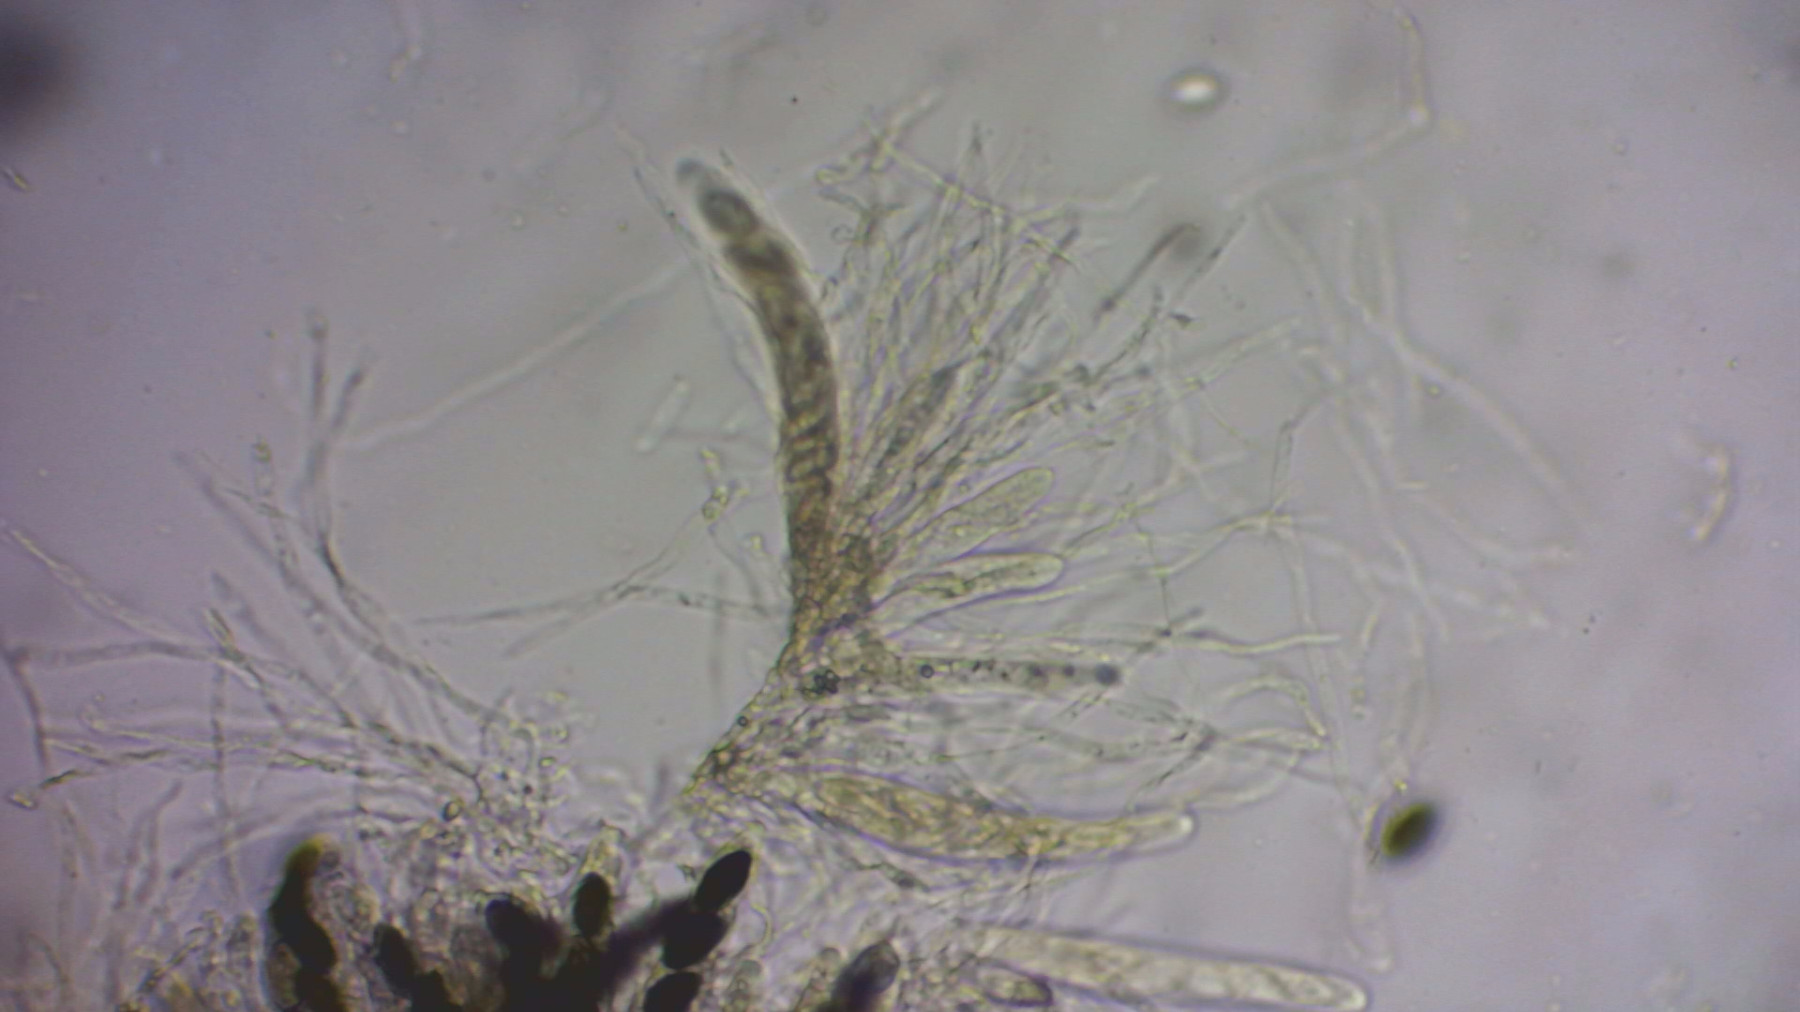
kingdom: Fungi
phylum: Ascomycota
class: Sordariomycetes
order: Xylariales
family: Xylariaceae
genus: Podosordaria
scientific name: Podosordaria tulasnei
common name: gødnings-stødsvamp
